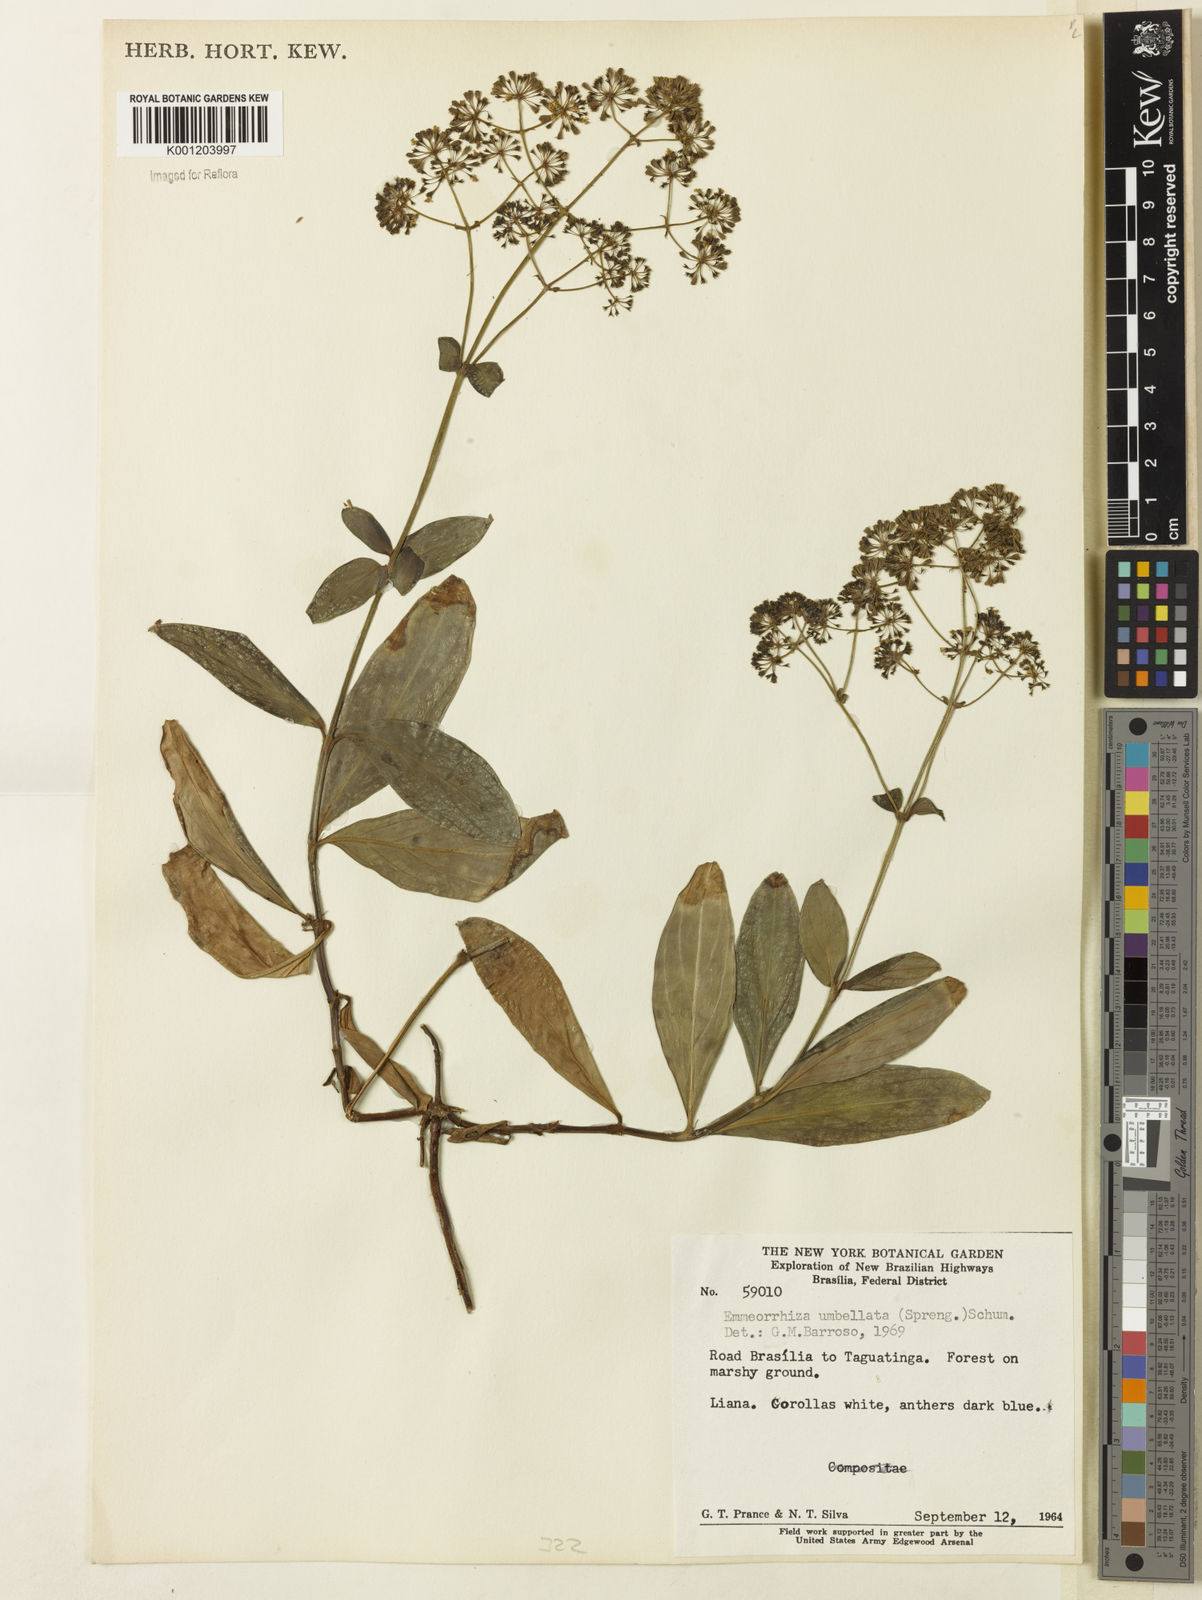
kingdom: Plantae
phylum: Tracheophyta
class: Magnoliopsida
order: Gentianales
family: Rubiaceae
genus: Emmeorhiza
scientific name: Emmeorhiza umbellata
